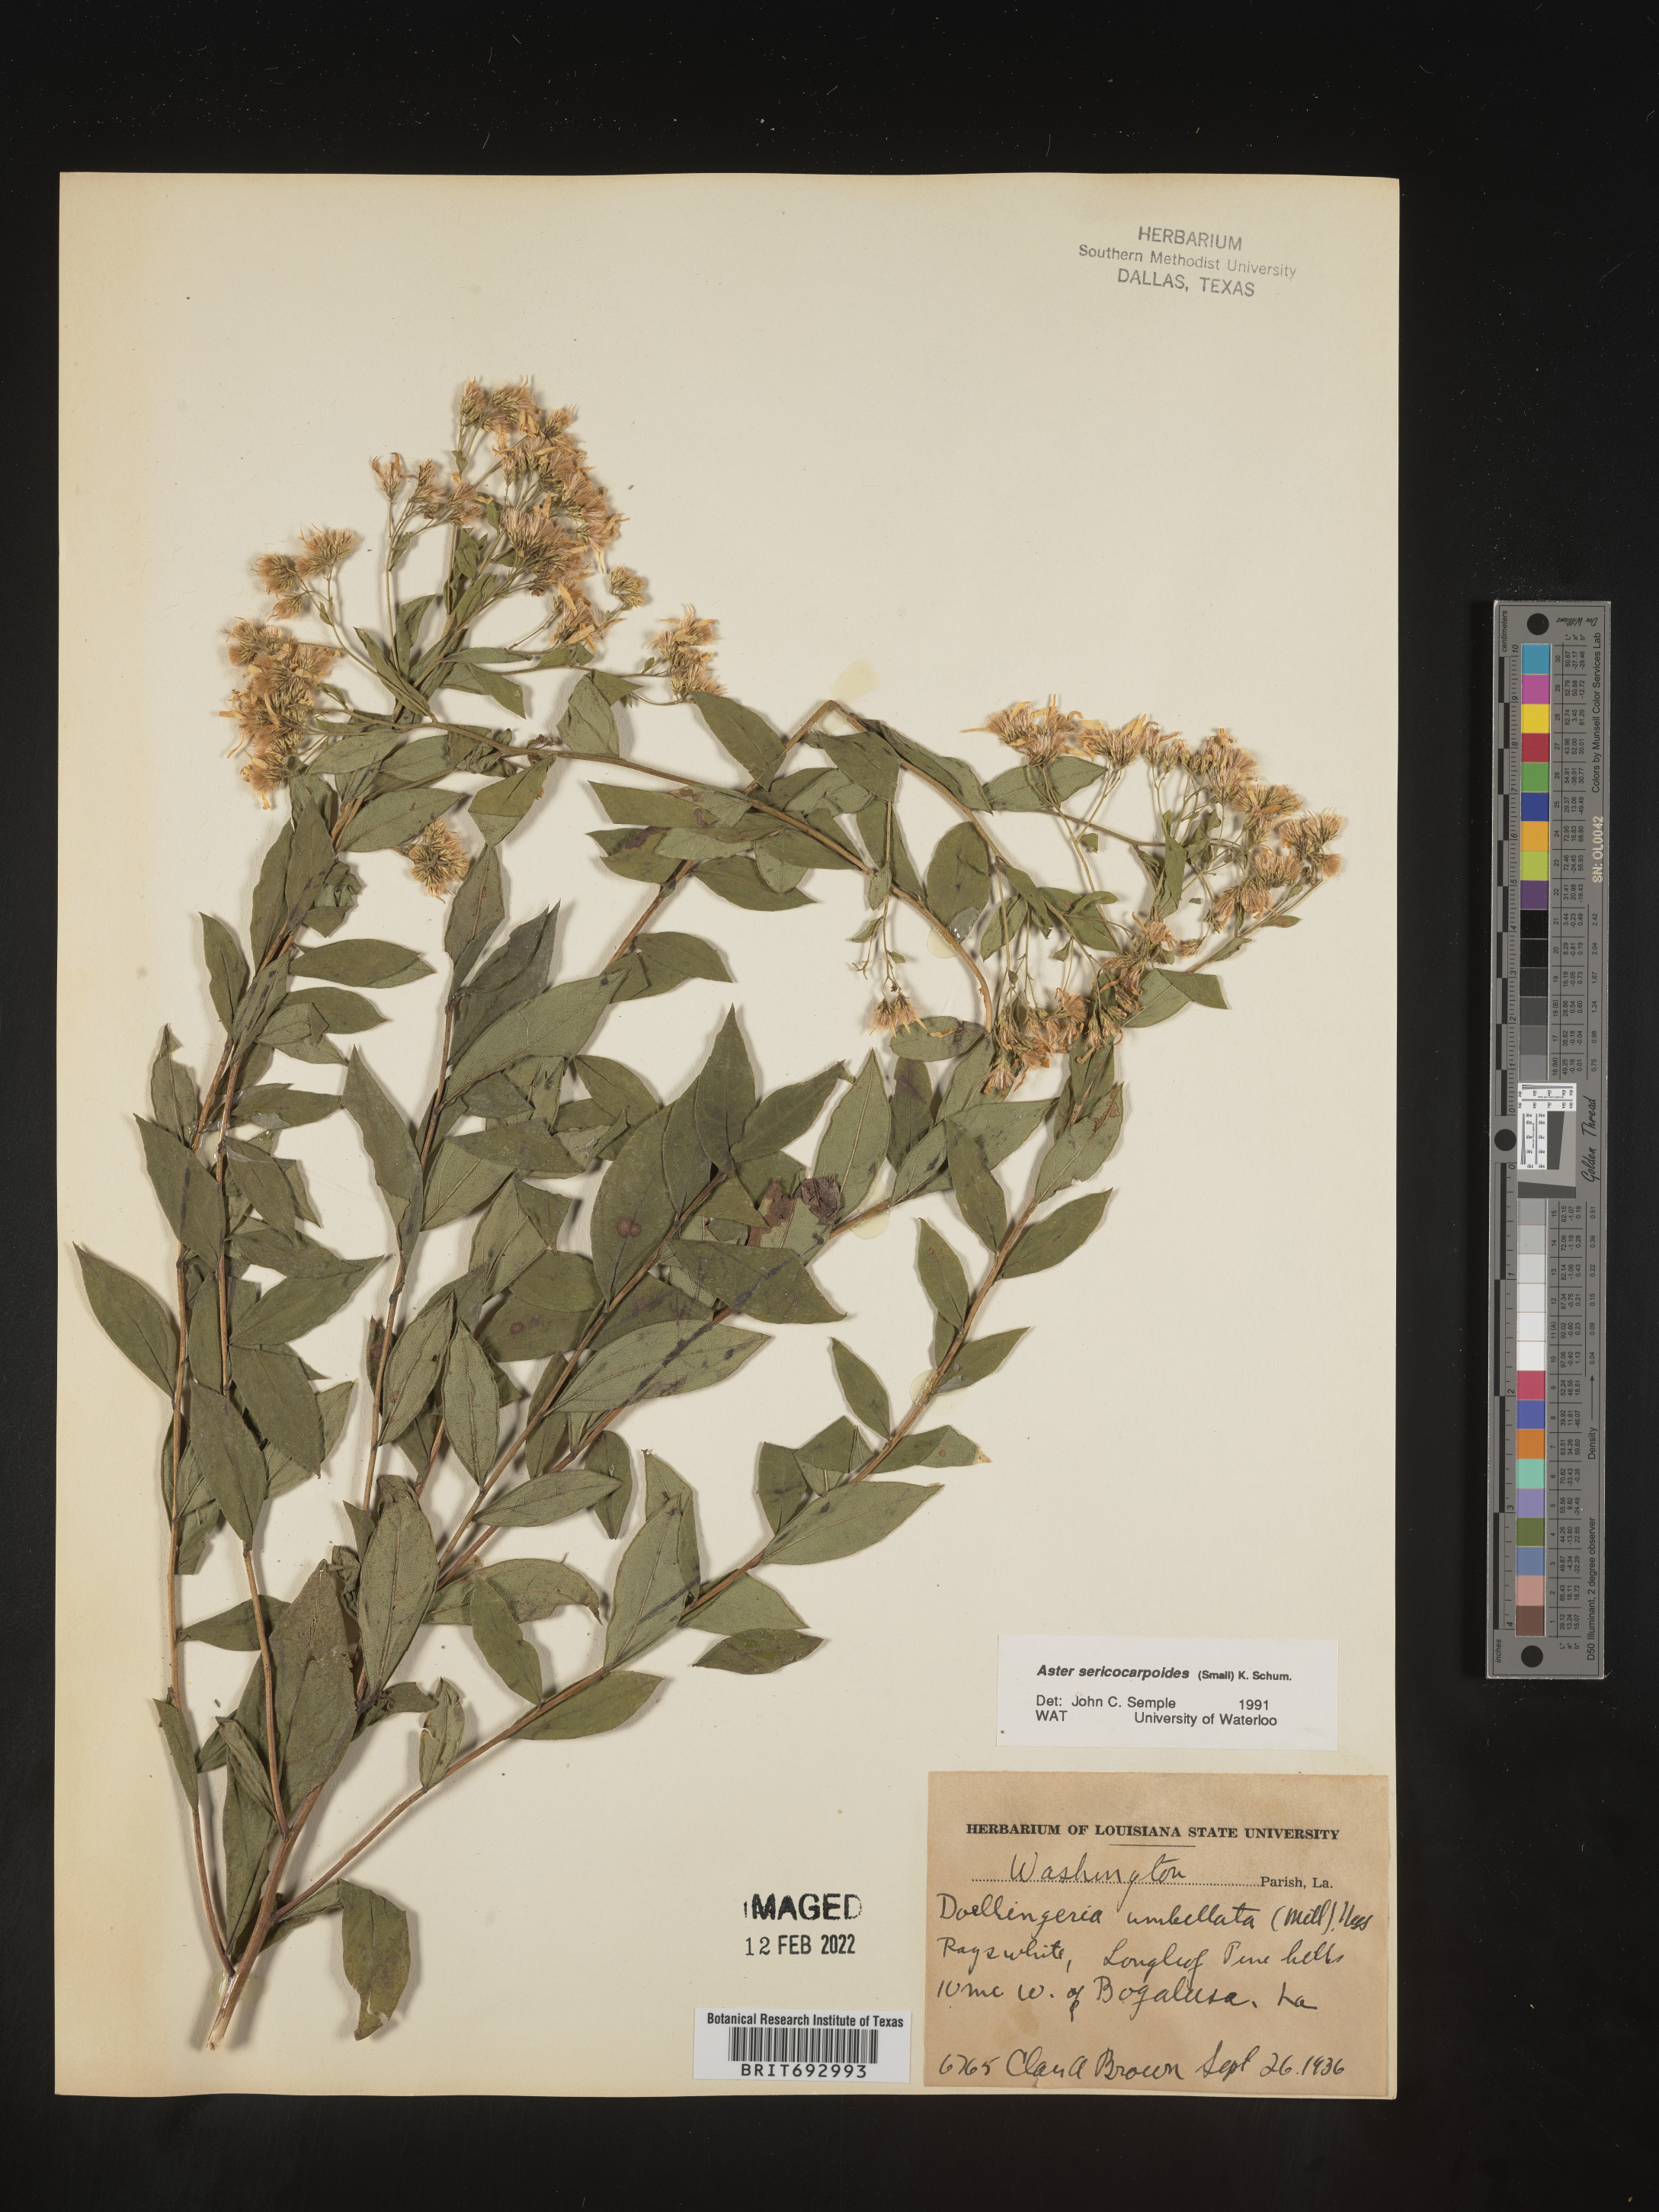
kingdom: Plantae
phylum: Tracheophyta
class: Magnoliopsida
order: Asterales
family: Asteraceae
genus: Doellingeria
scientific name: Doellingeria sericocarpoides
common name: Southern tall flat-top aster
